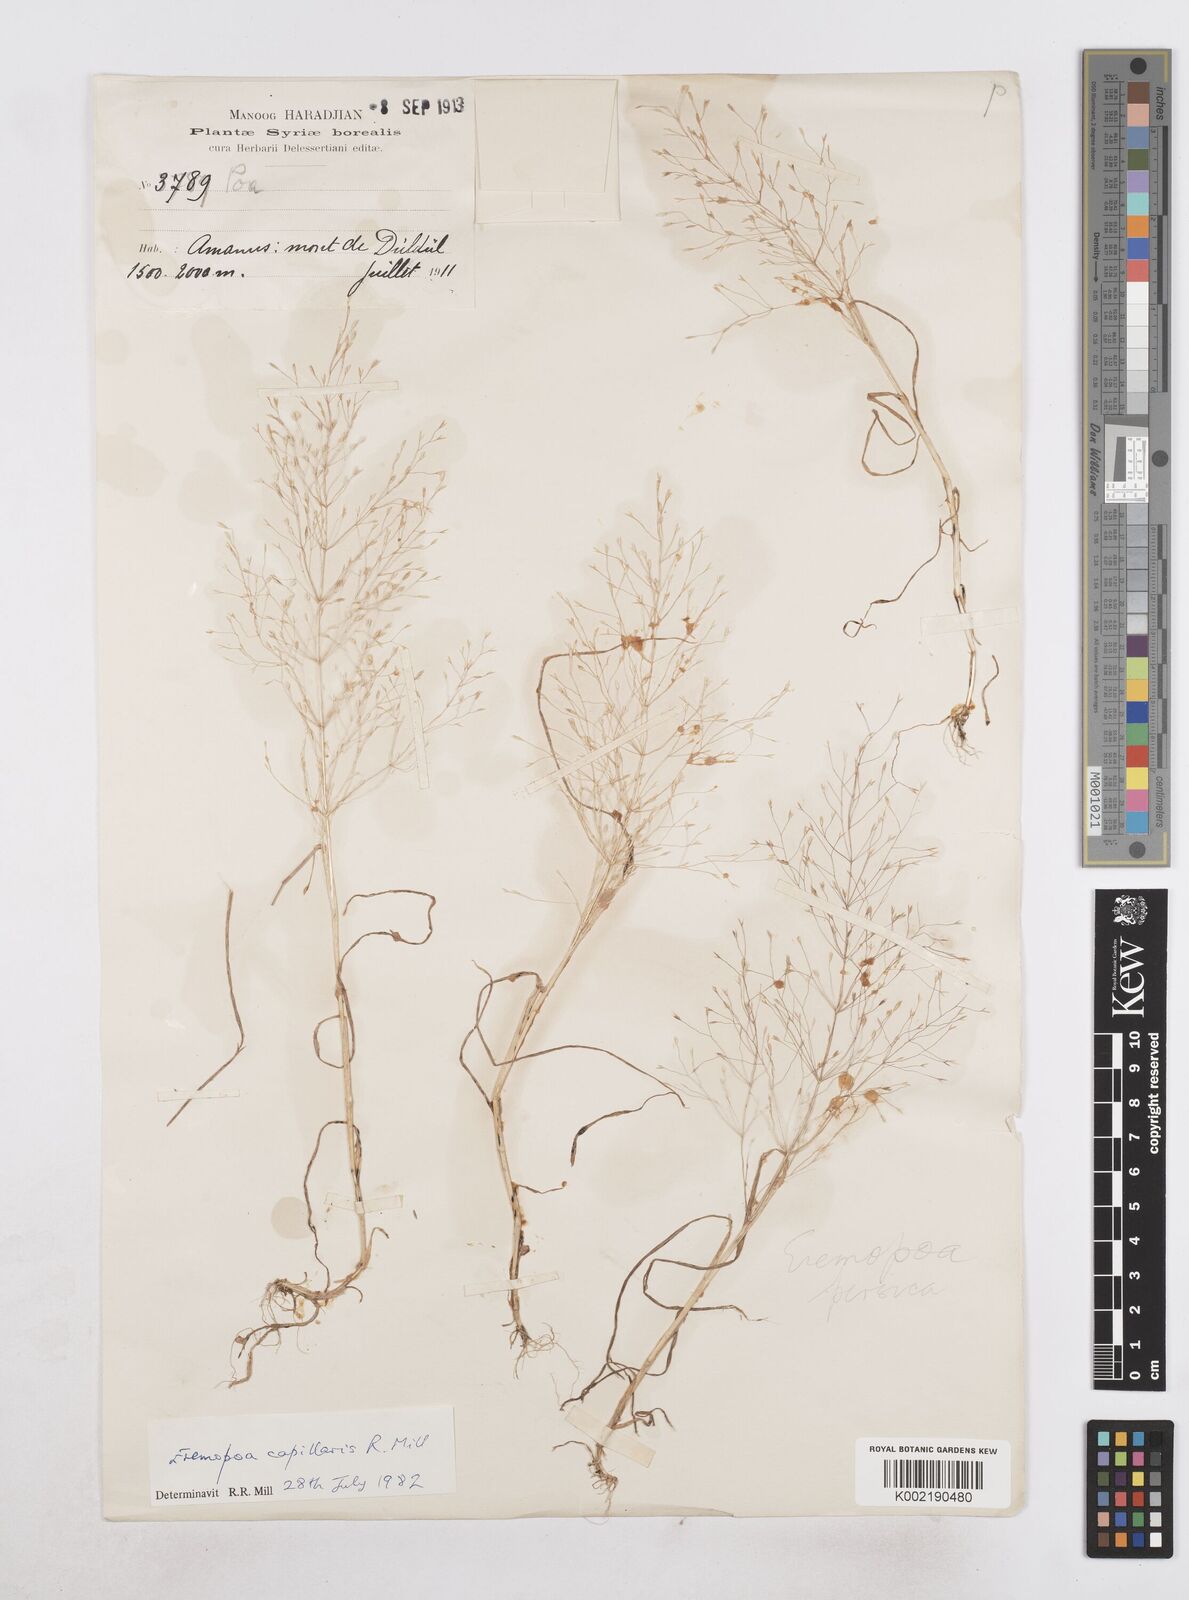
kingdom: Plantae
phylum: Tracheophyta
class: Liliopsida
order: Poales
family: Poaceae
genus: Poa
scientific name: Poa millii
